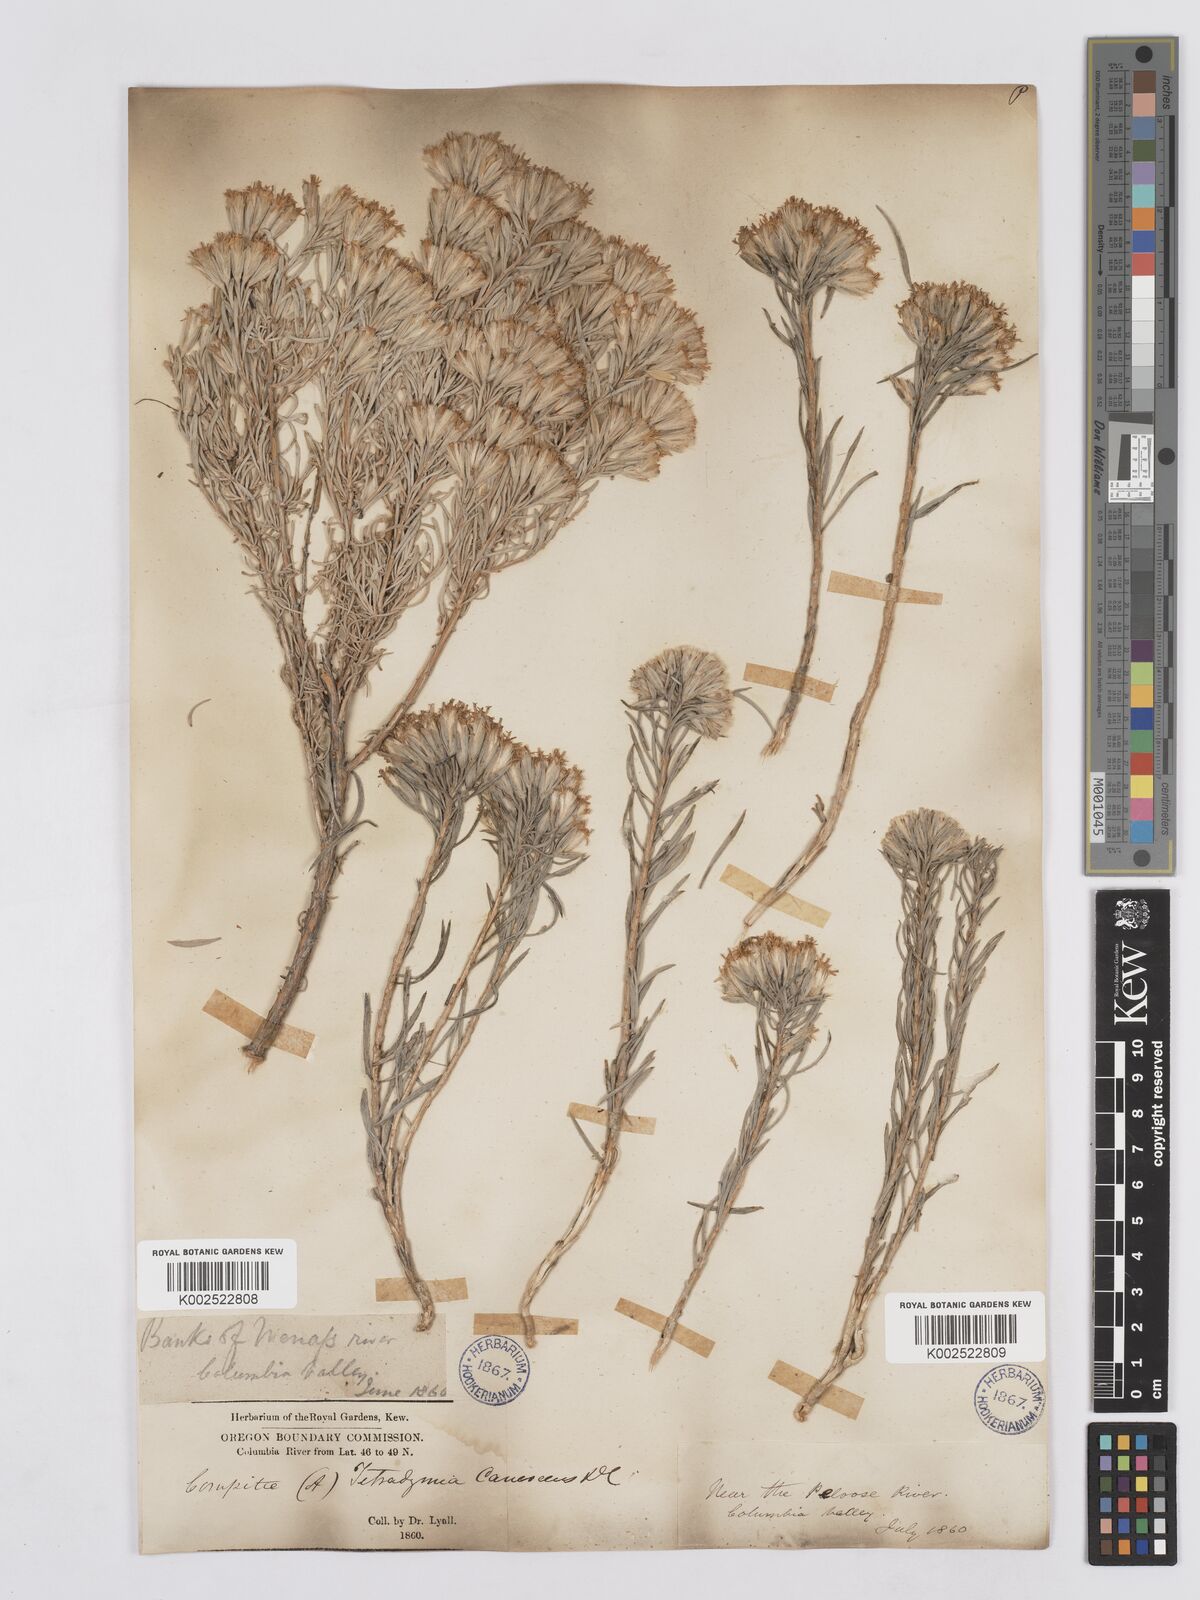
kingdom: Plantae
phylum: Tracheophyta
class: Magnoliopsida
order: Asterales
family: Asteraceae
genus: Tetradymia
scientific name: Tetradymia canescens
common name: Spineless horsebrush
